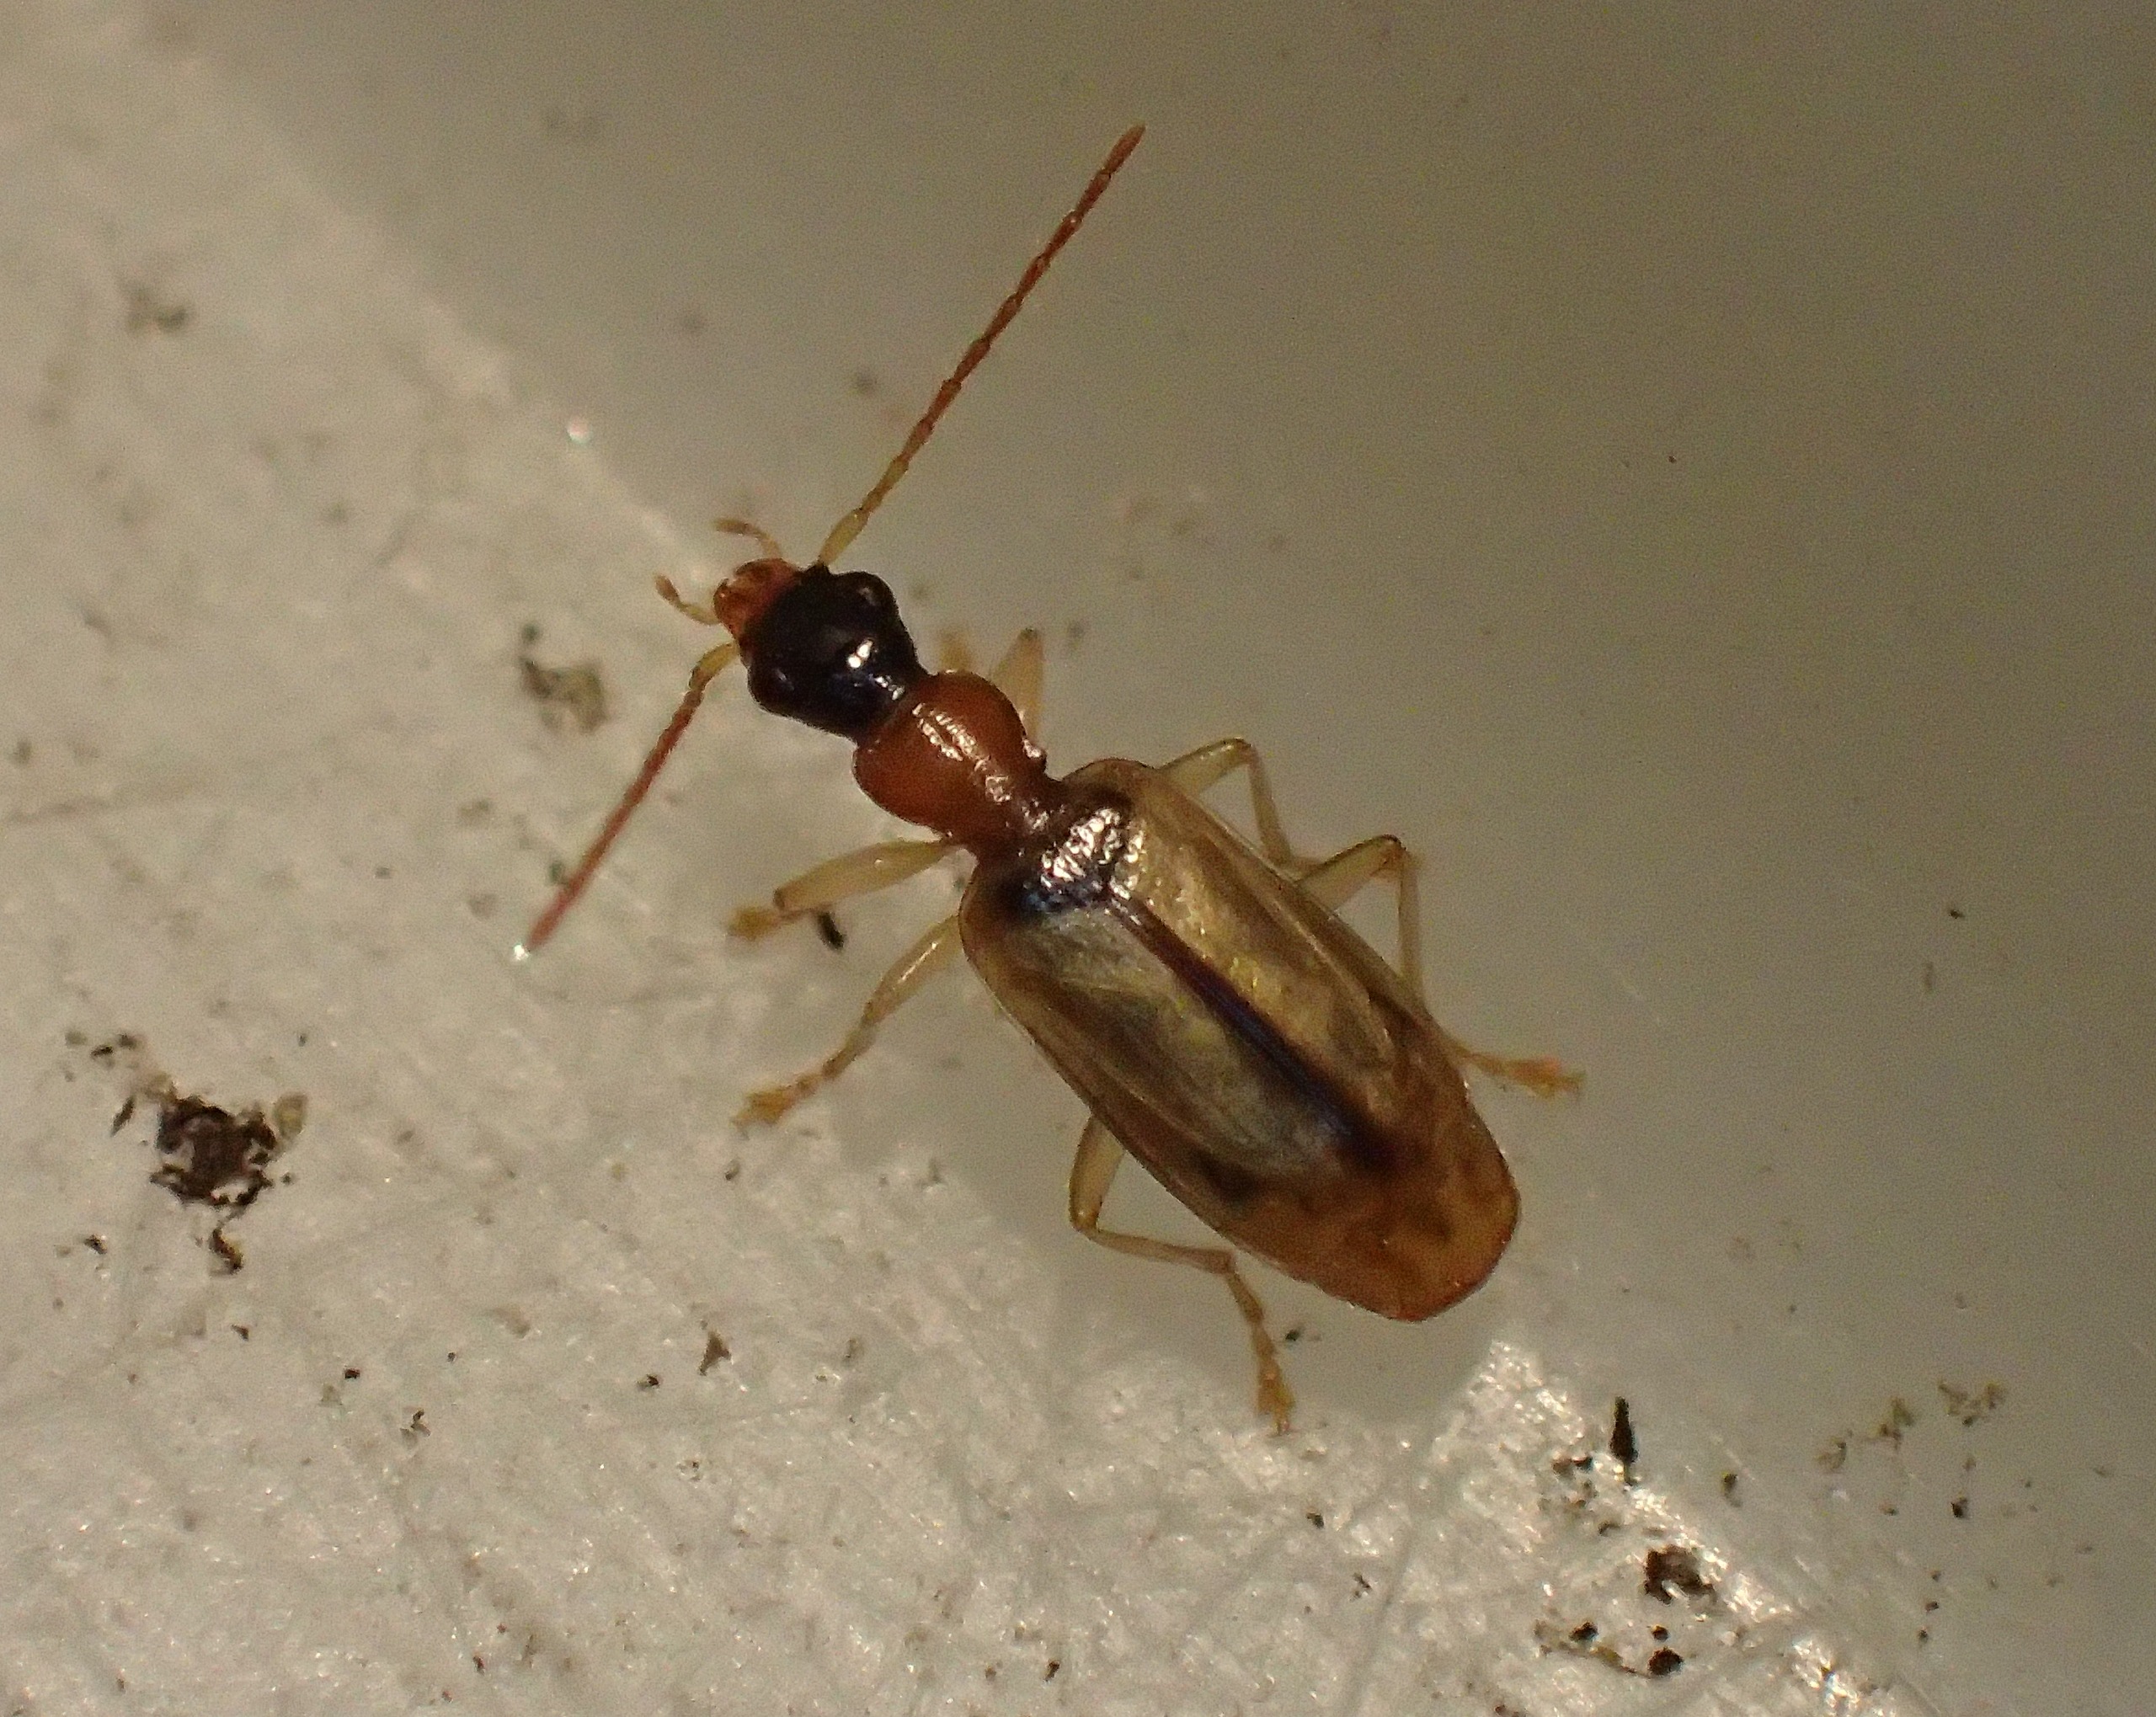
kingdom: Animalia
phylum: Arthropoda
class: Insecta
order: Coleoptera
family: Carabidae
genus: Demetrias
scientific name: Demetrias atricapillus
